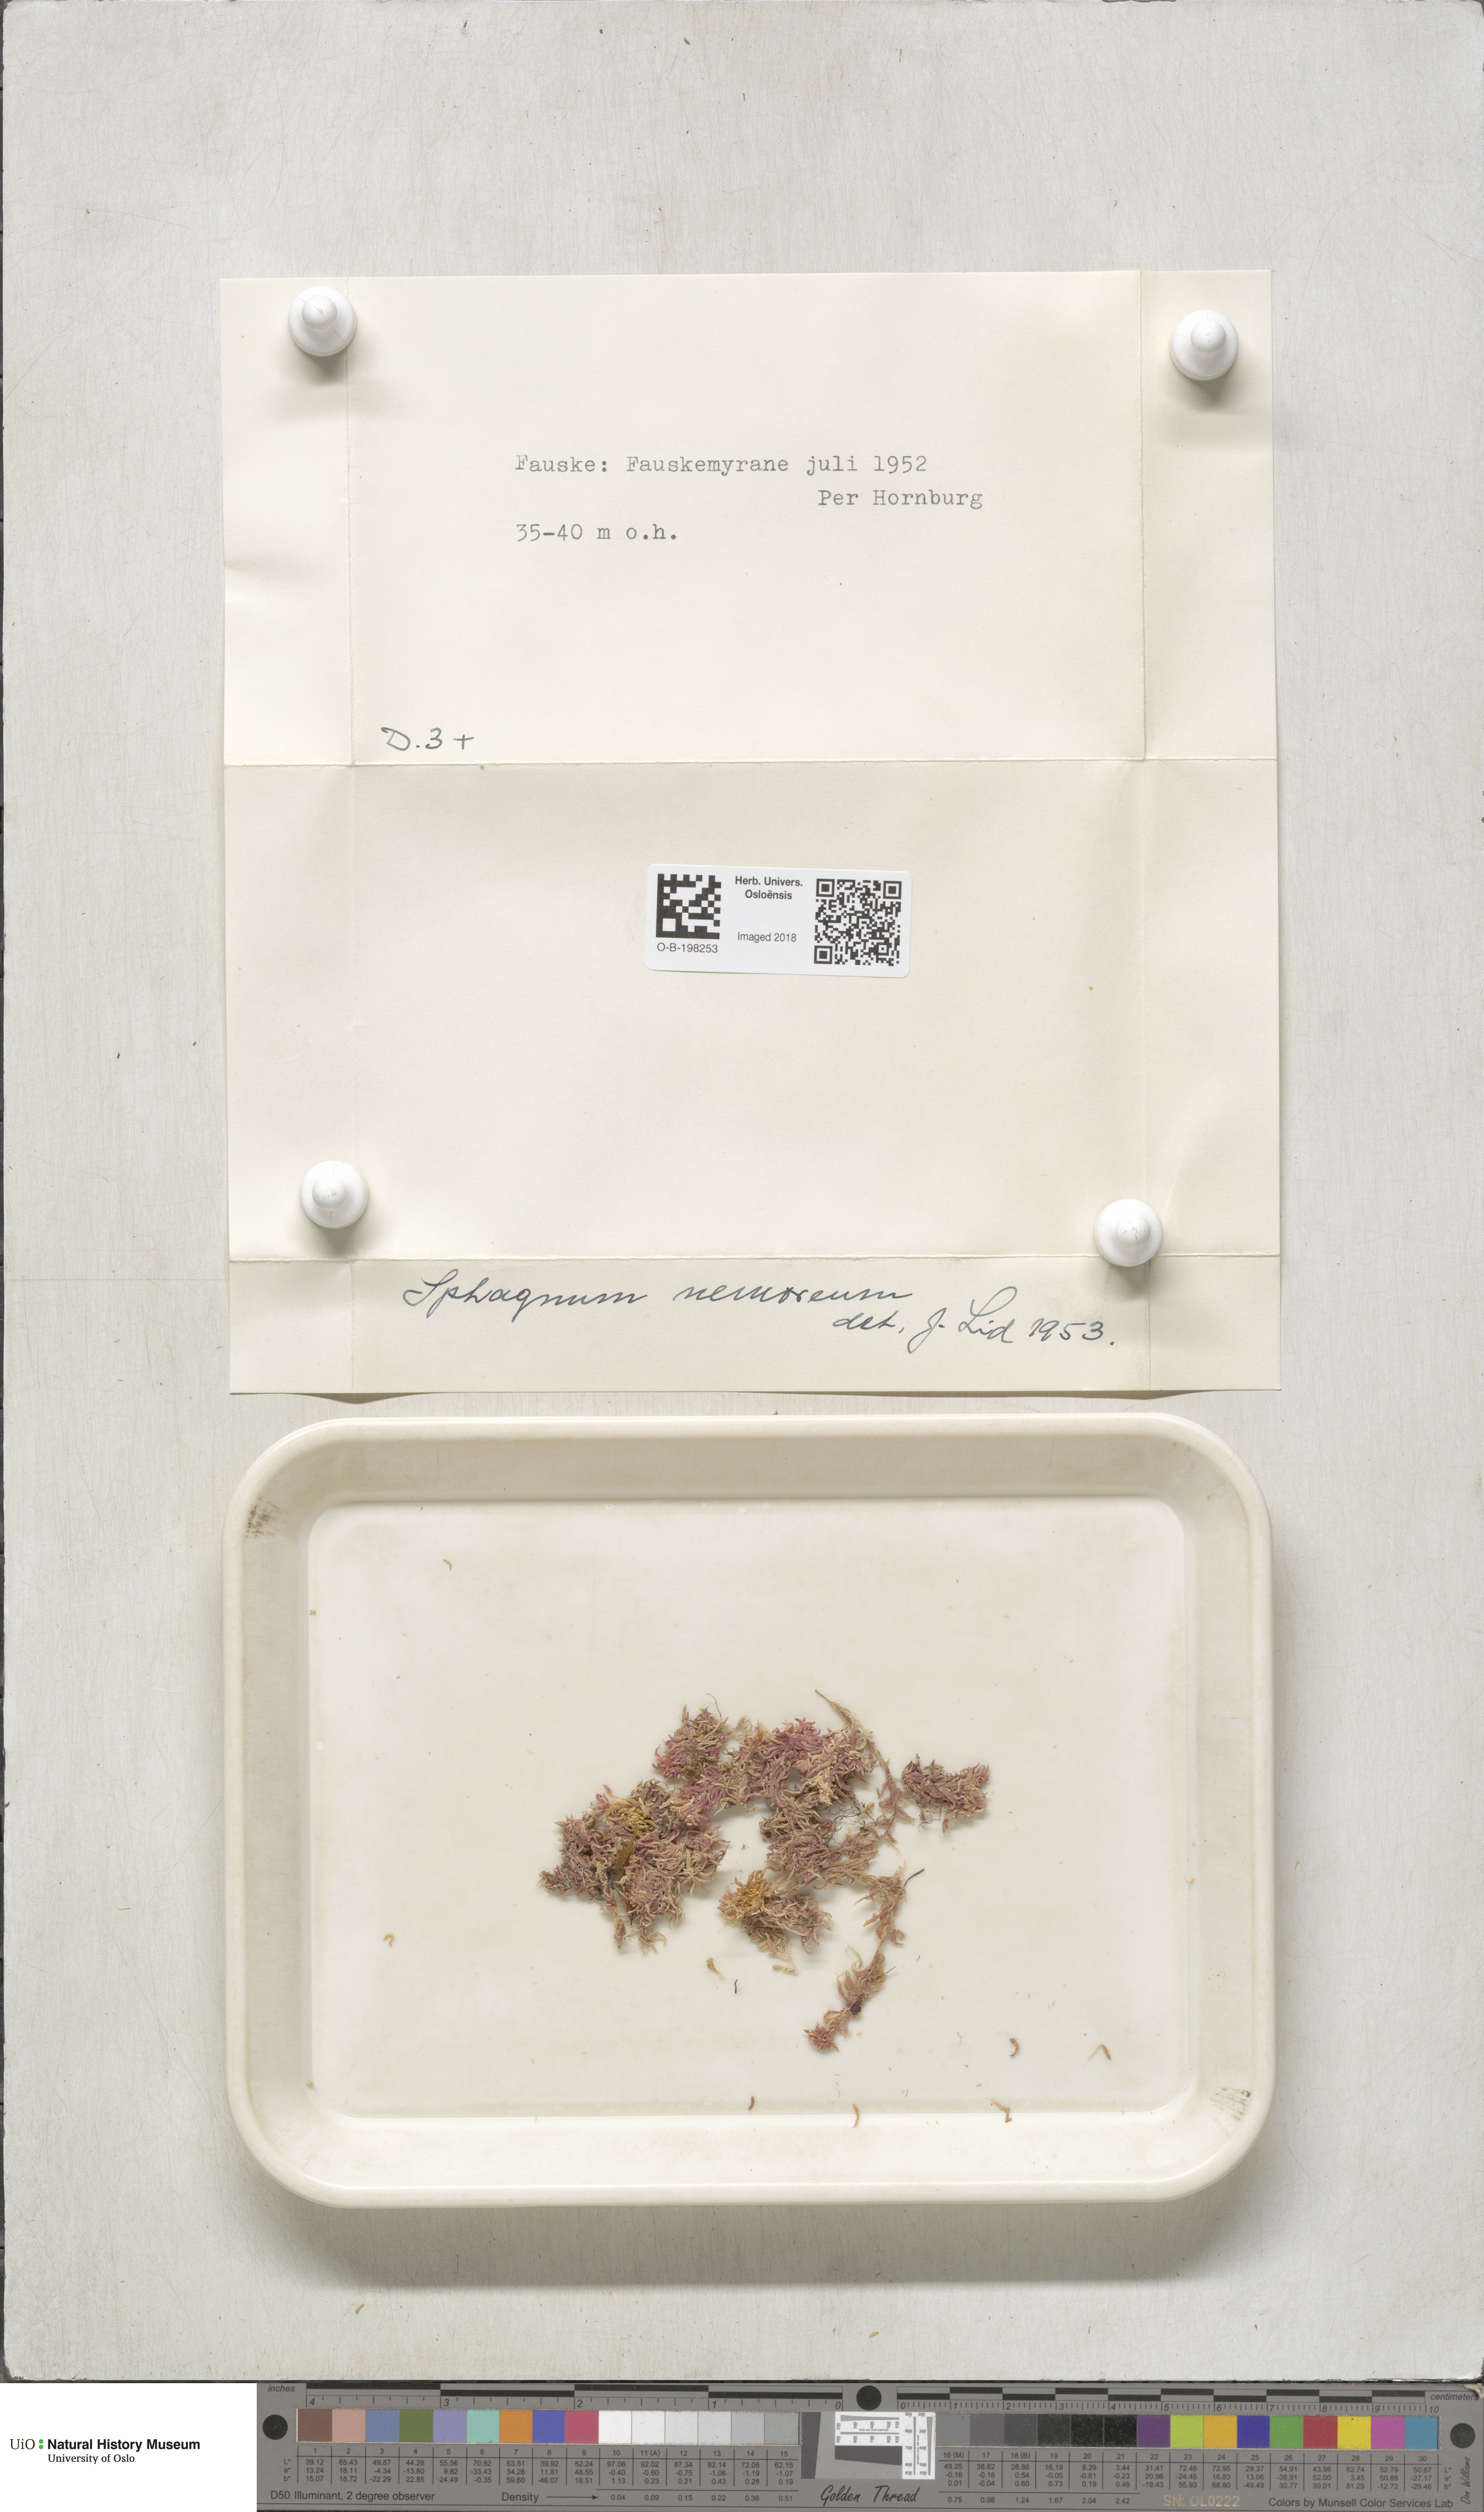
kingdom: Plantae
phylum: Bryophyta
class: Sphagnopsida
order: Sphagnales
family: Sphagnaceae
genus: Sphagnum
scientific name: Sphagnum capillifolium
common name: Small red peat moss
